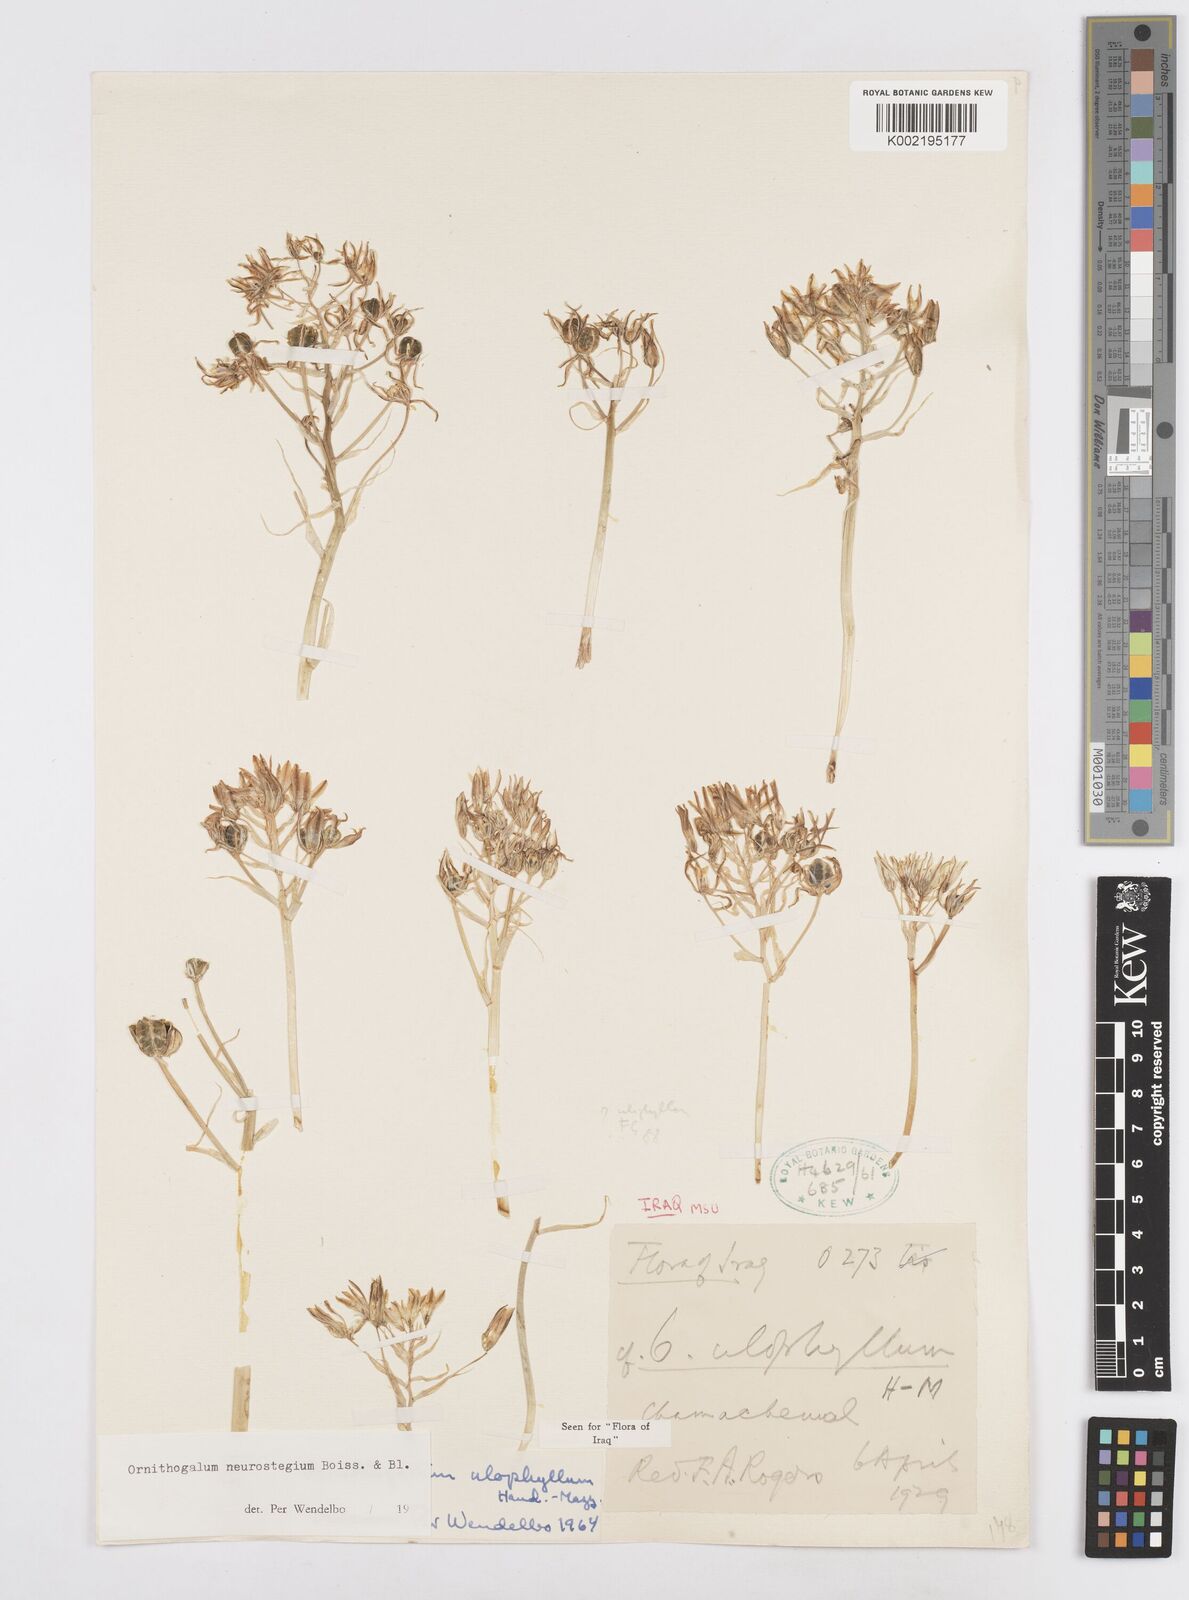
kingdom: Plantae
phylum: Tracheophyta
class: Liliopsida
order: Asparagales
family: Asparagaceae
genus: Ornithogalum
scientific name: Ornithogalum neurostegium
